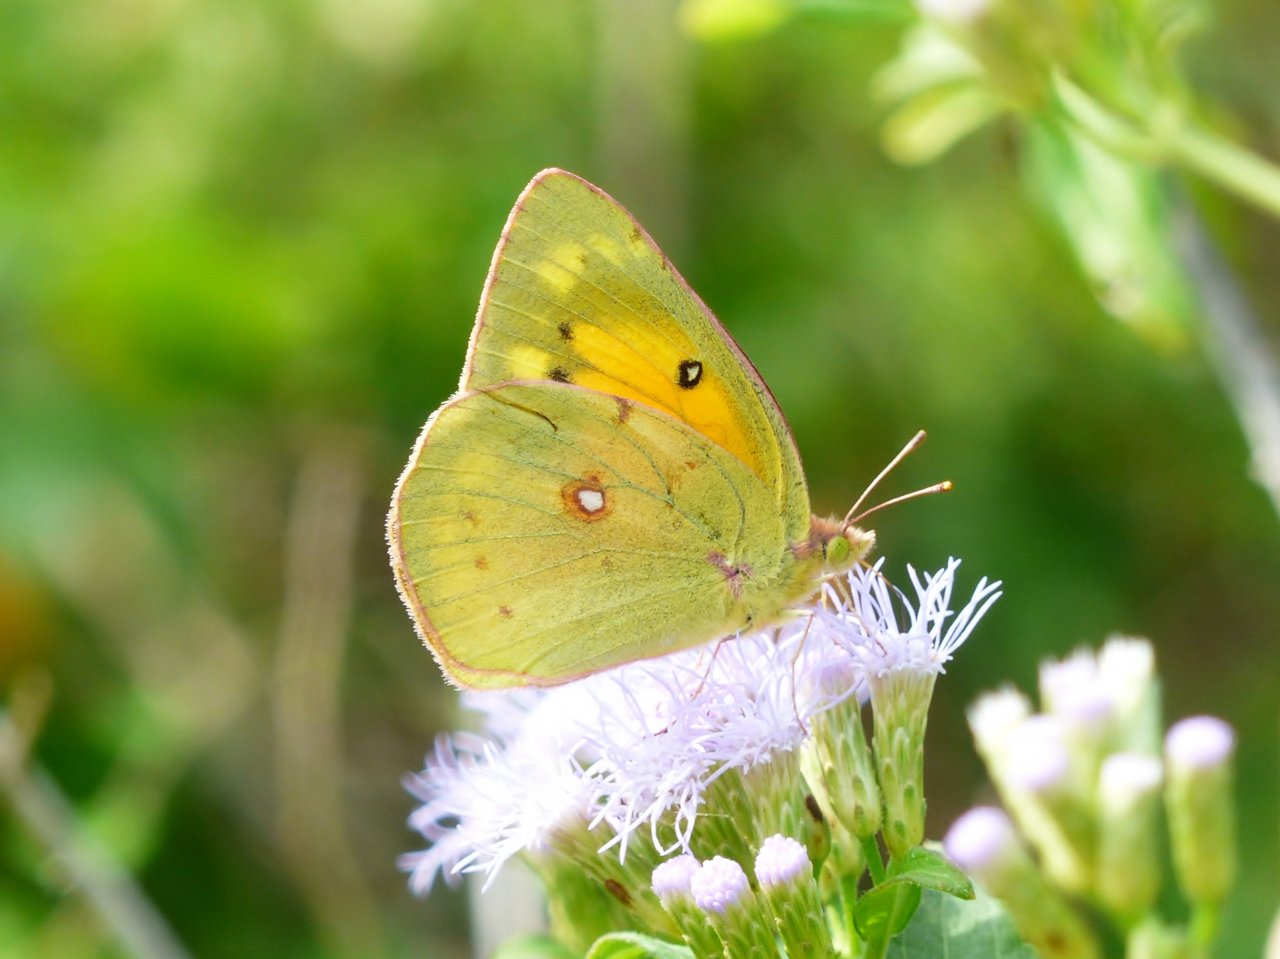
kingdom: Animalia
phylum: Arthropoda
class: Insecta
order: Lepidoptera
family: Pieridae
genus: Colias
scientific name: Colias eurytheme
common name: Orange Sulphur
